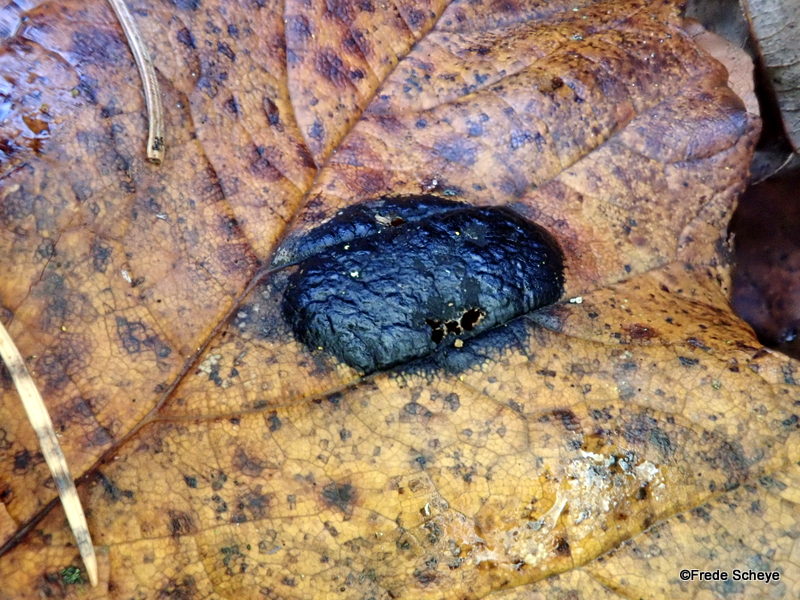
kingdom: Fungi
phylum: Ascomycota
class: Leotiomycetes
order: Rhytismatales
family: Rhytismataceae
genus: Rhytisma
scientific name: Rhytisma acerinum
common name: ahorn-rynkeplet
